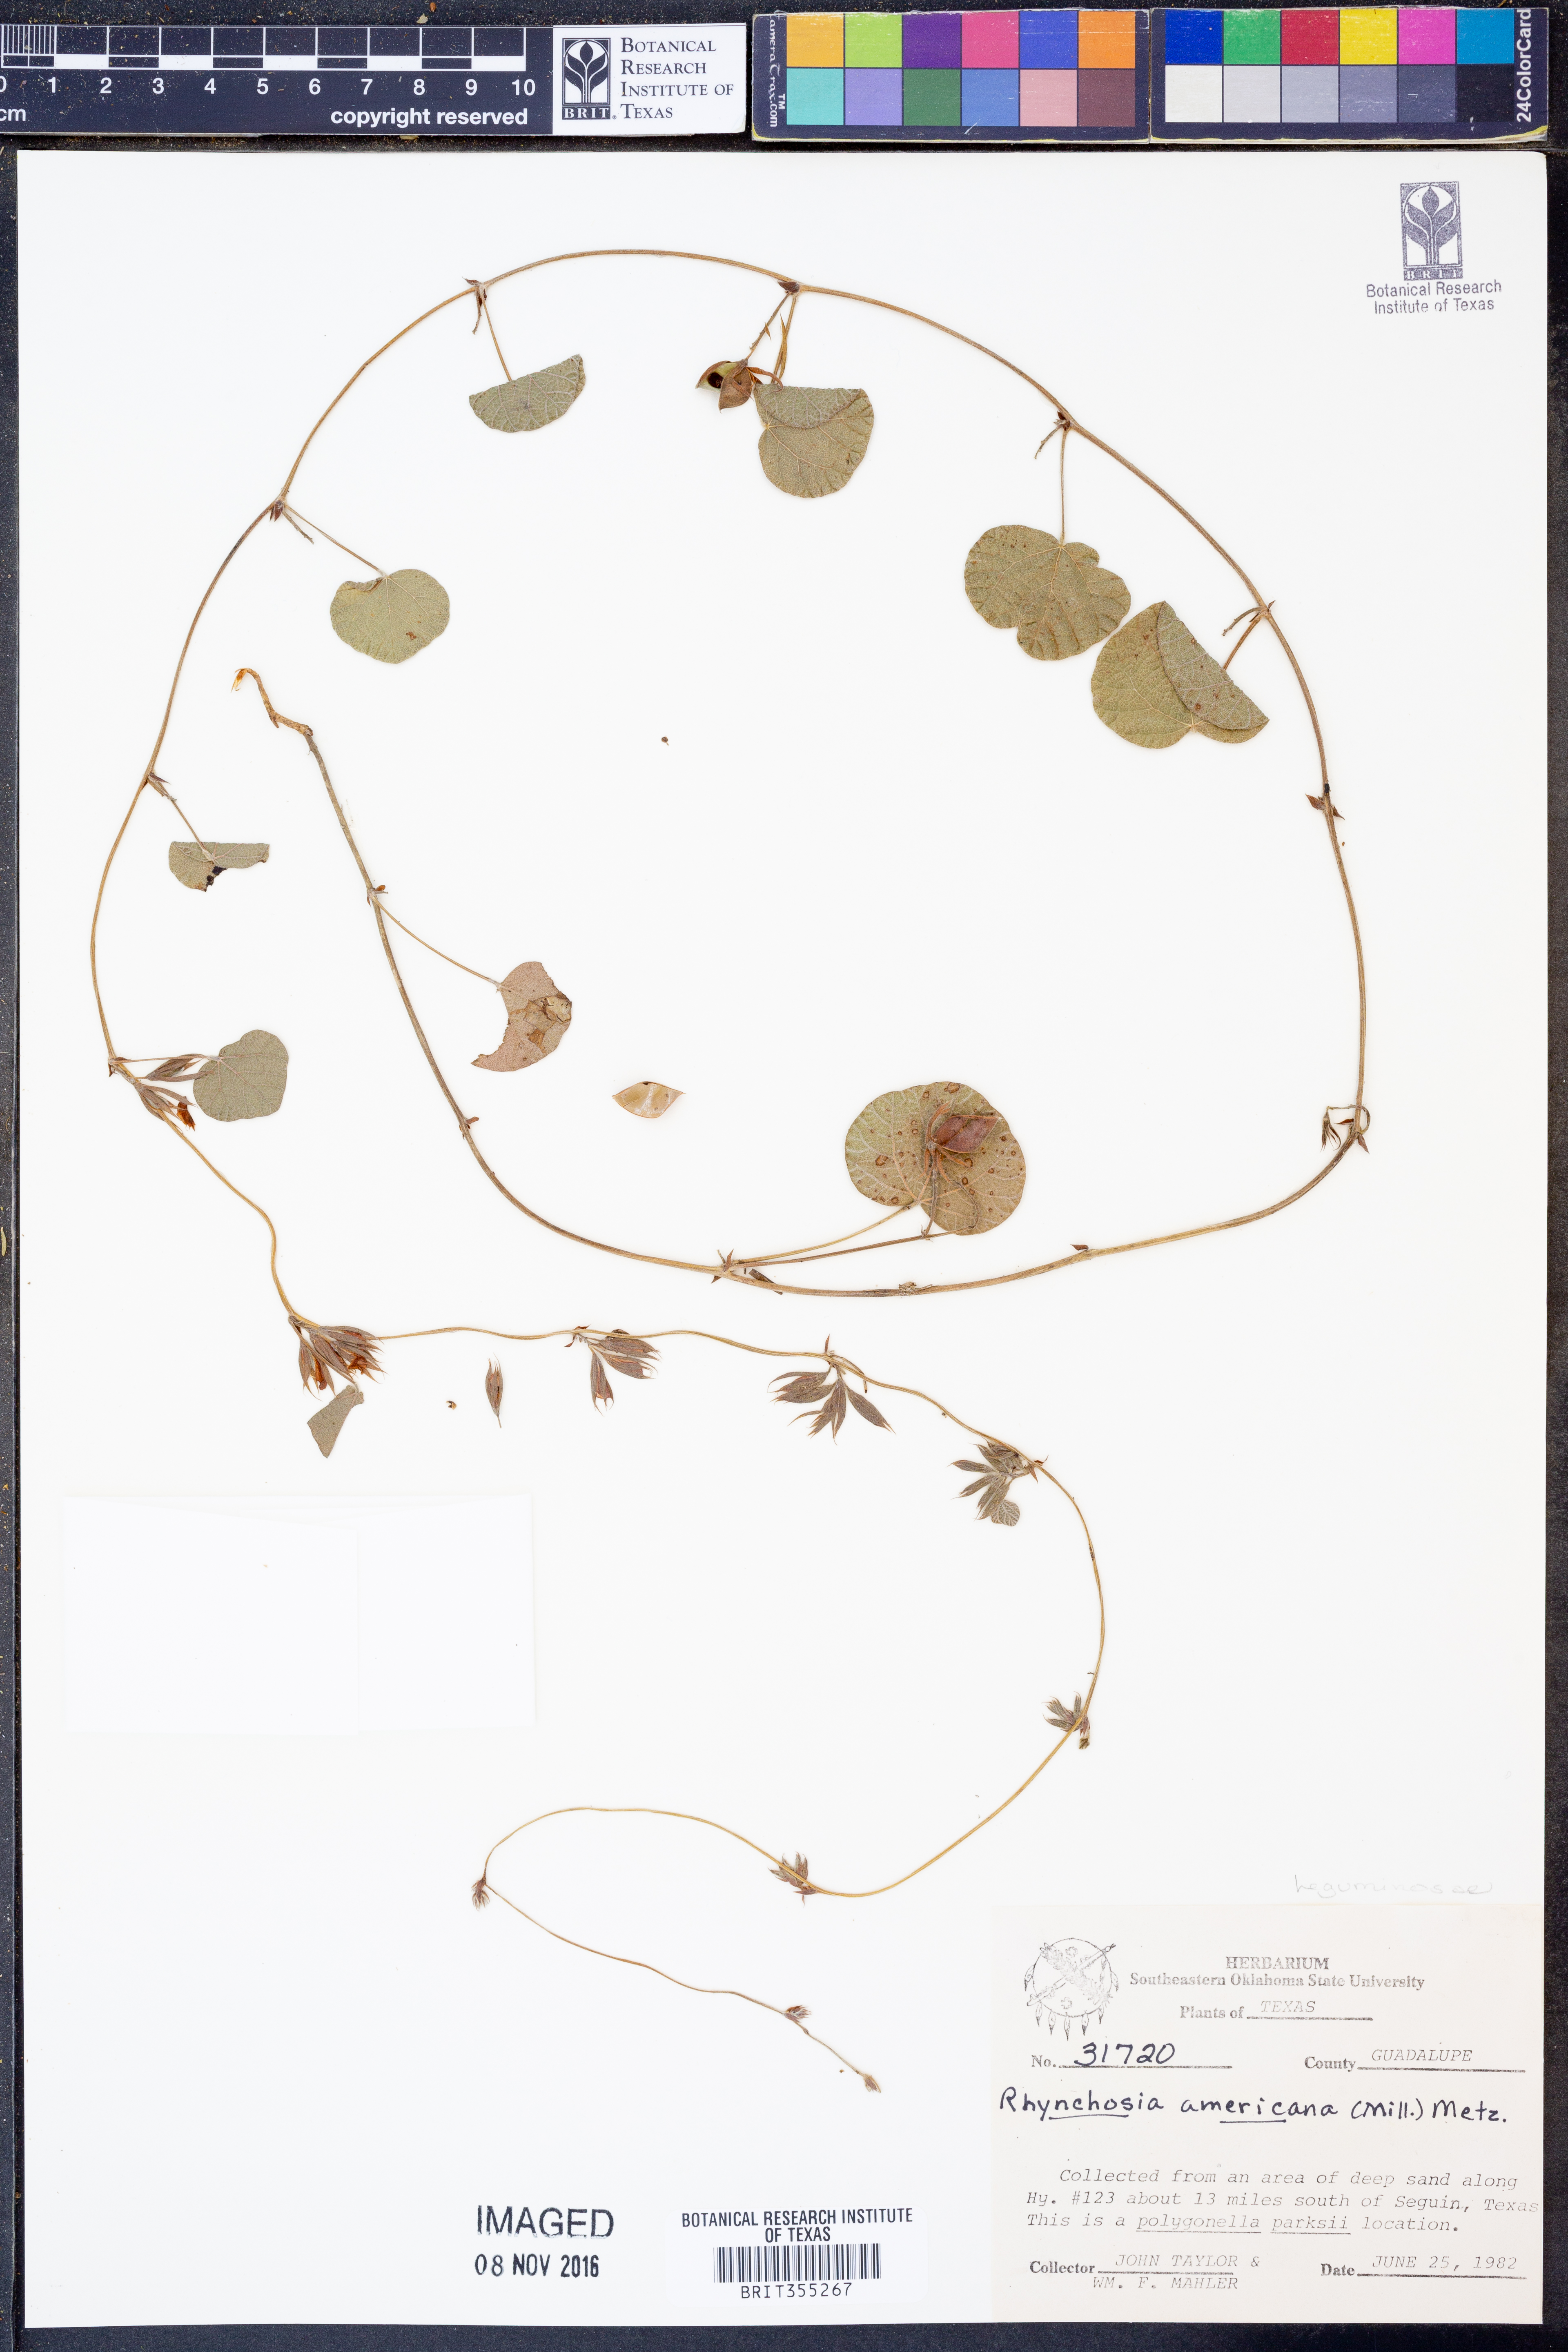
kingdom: Plantae
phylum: Tracheophyta
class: Magnoliopsida
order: Fabales
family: Fabaceae
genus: Rhynchosia
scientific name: Rhynchosia americana
